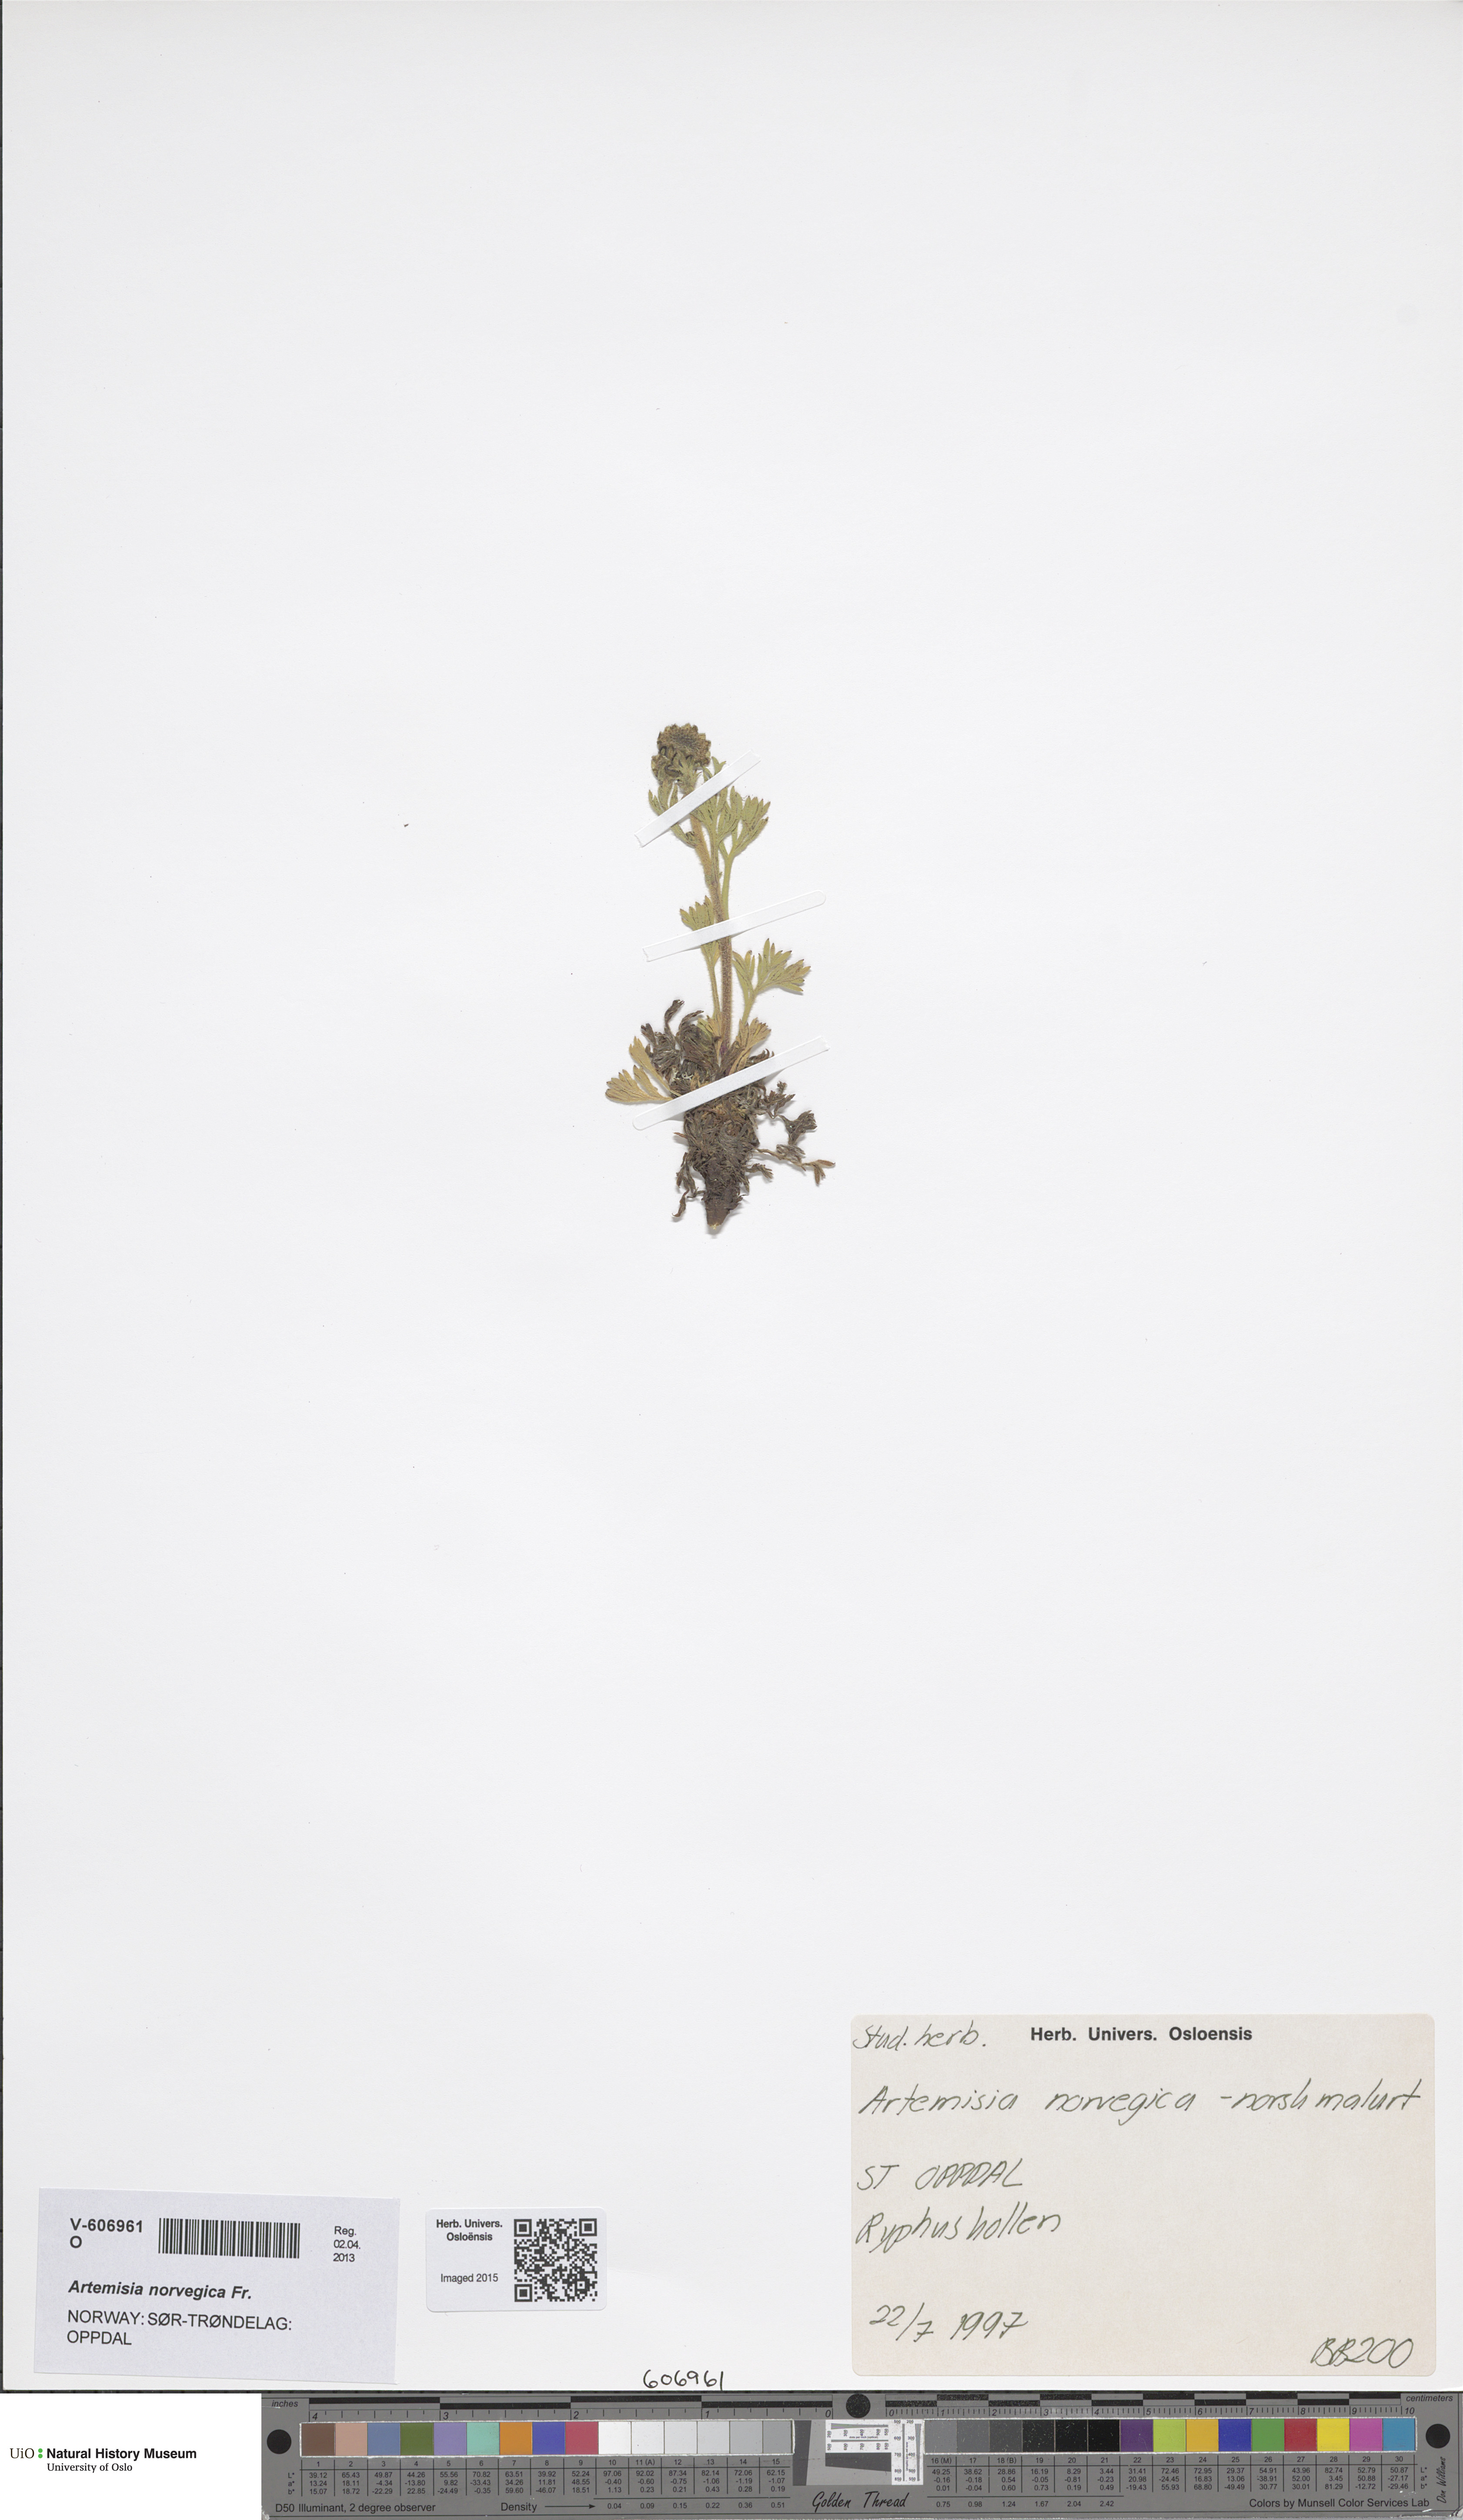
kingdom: Plantae
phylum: Tracheophyta
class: Magnoliopsida
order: Asterales
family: Asteraceae
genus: Artemisia
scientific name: Artemisia norvegica
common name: Norwegian mugwort
